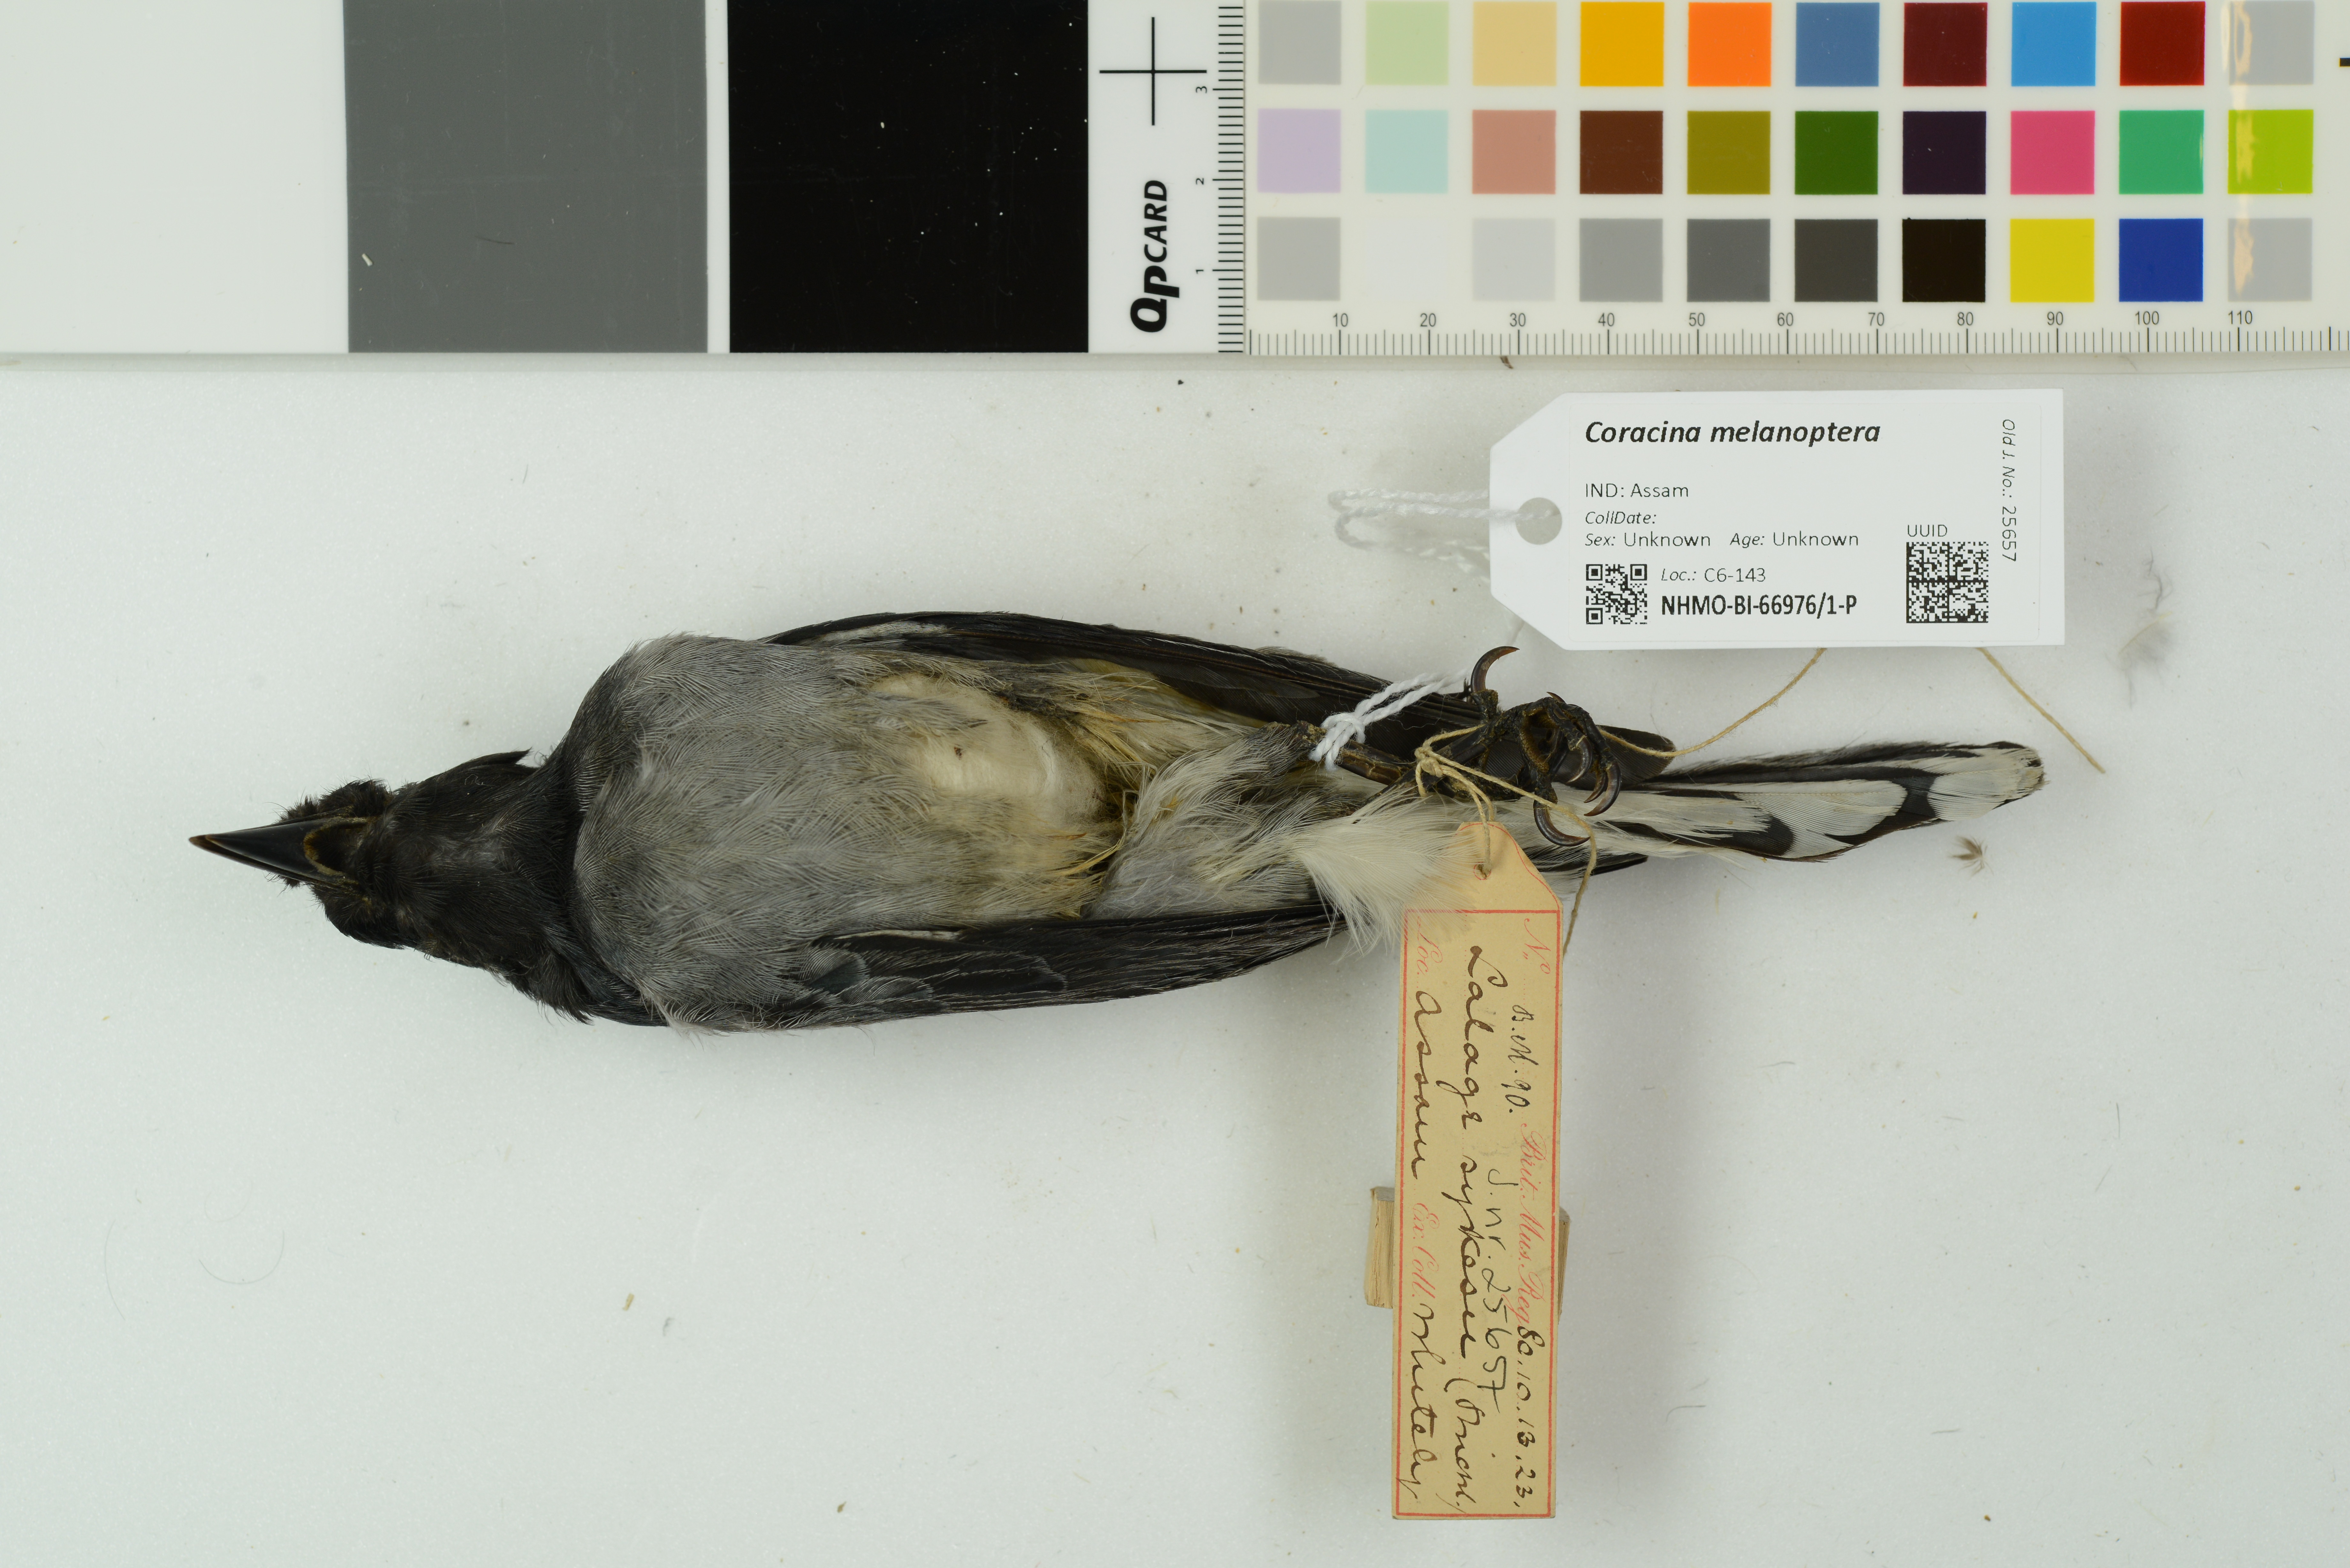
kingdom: Animalia
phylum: Chordata
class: Aves
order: Passeriformes
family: Campephagidae
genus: Coracina
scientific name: Coracina melanoptera
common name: Black-headed cuckooshrike
